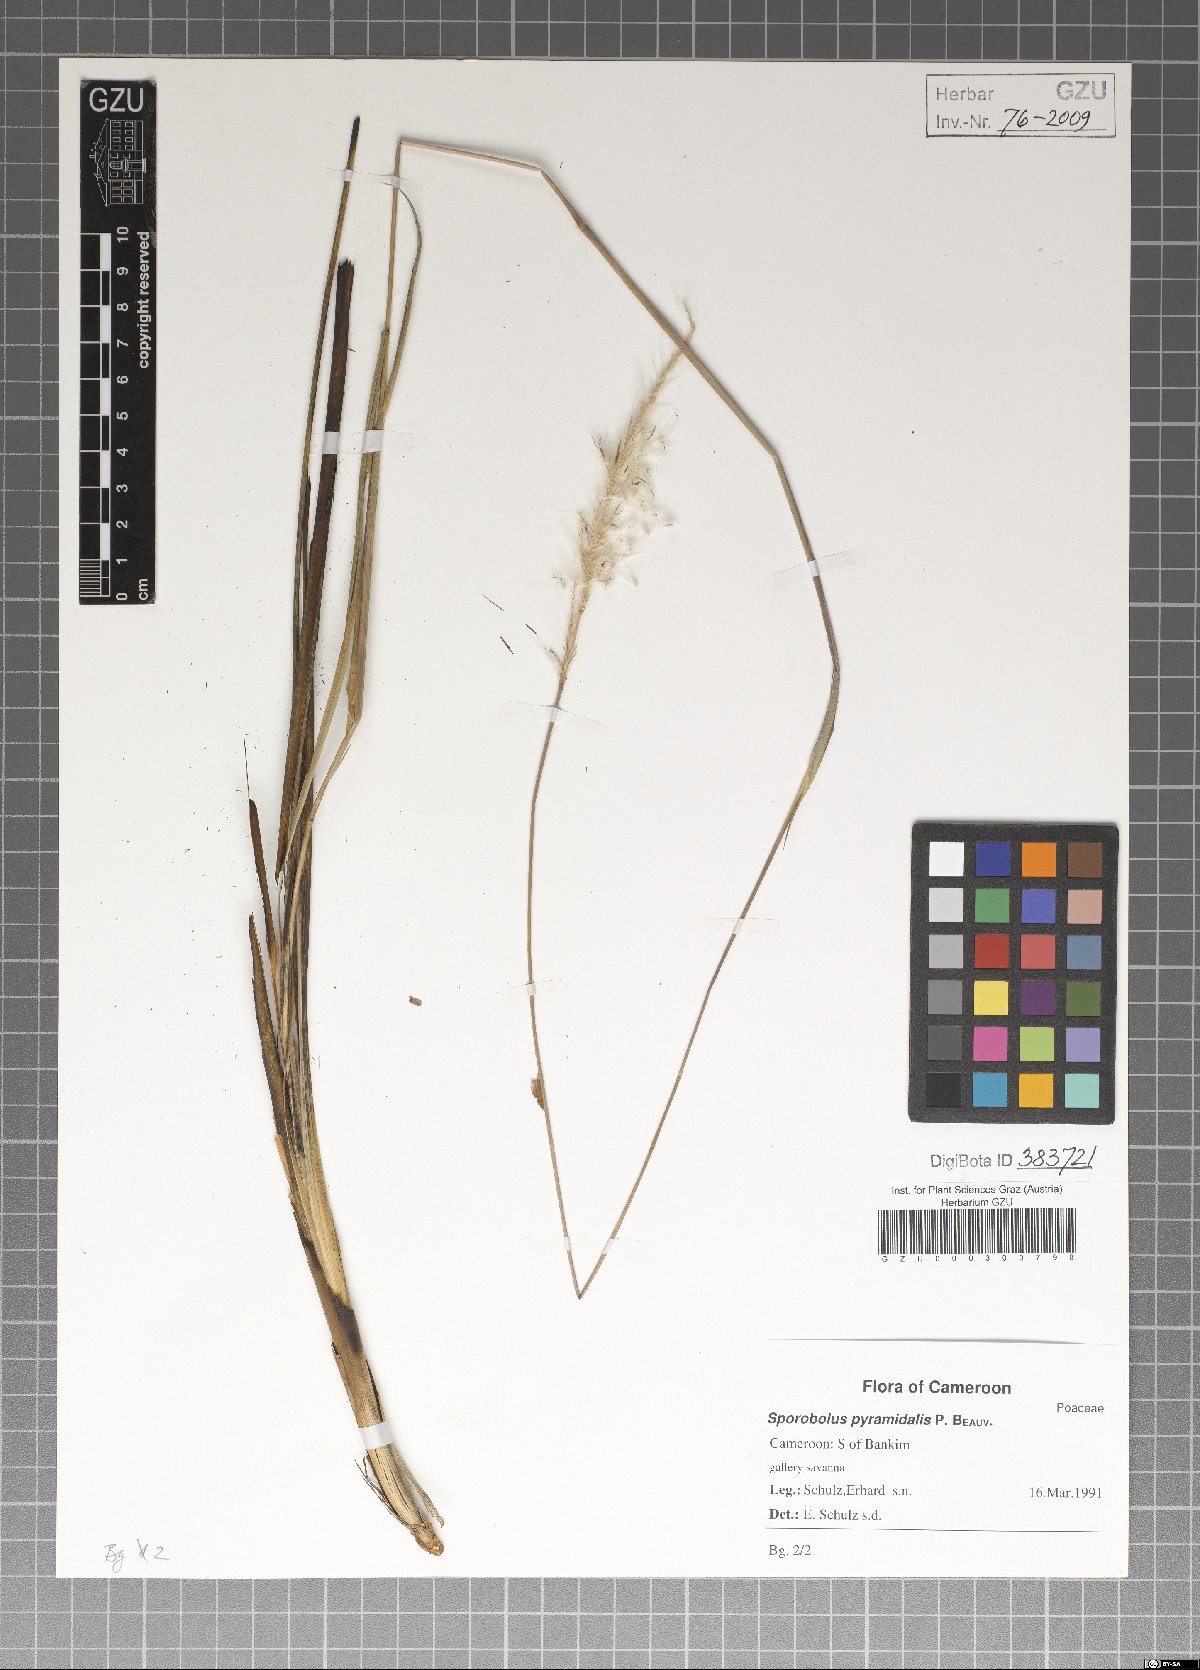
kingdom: Plantae
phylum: Tracheophyta
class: Liliopsida
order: Poales
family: Poaceae
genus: Sporobolus
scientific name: Sporobolus pyramidalis
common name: West indian dropseed
